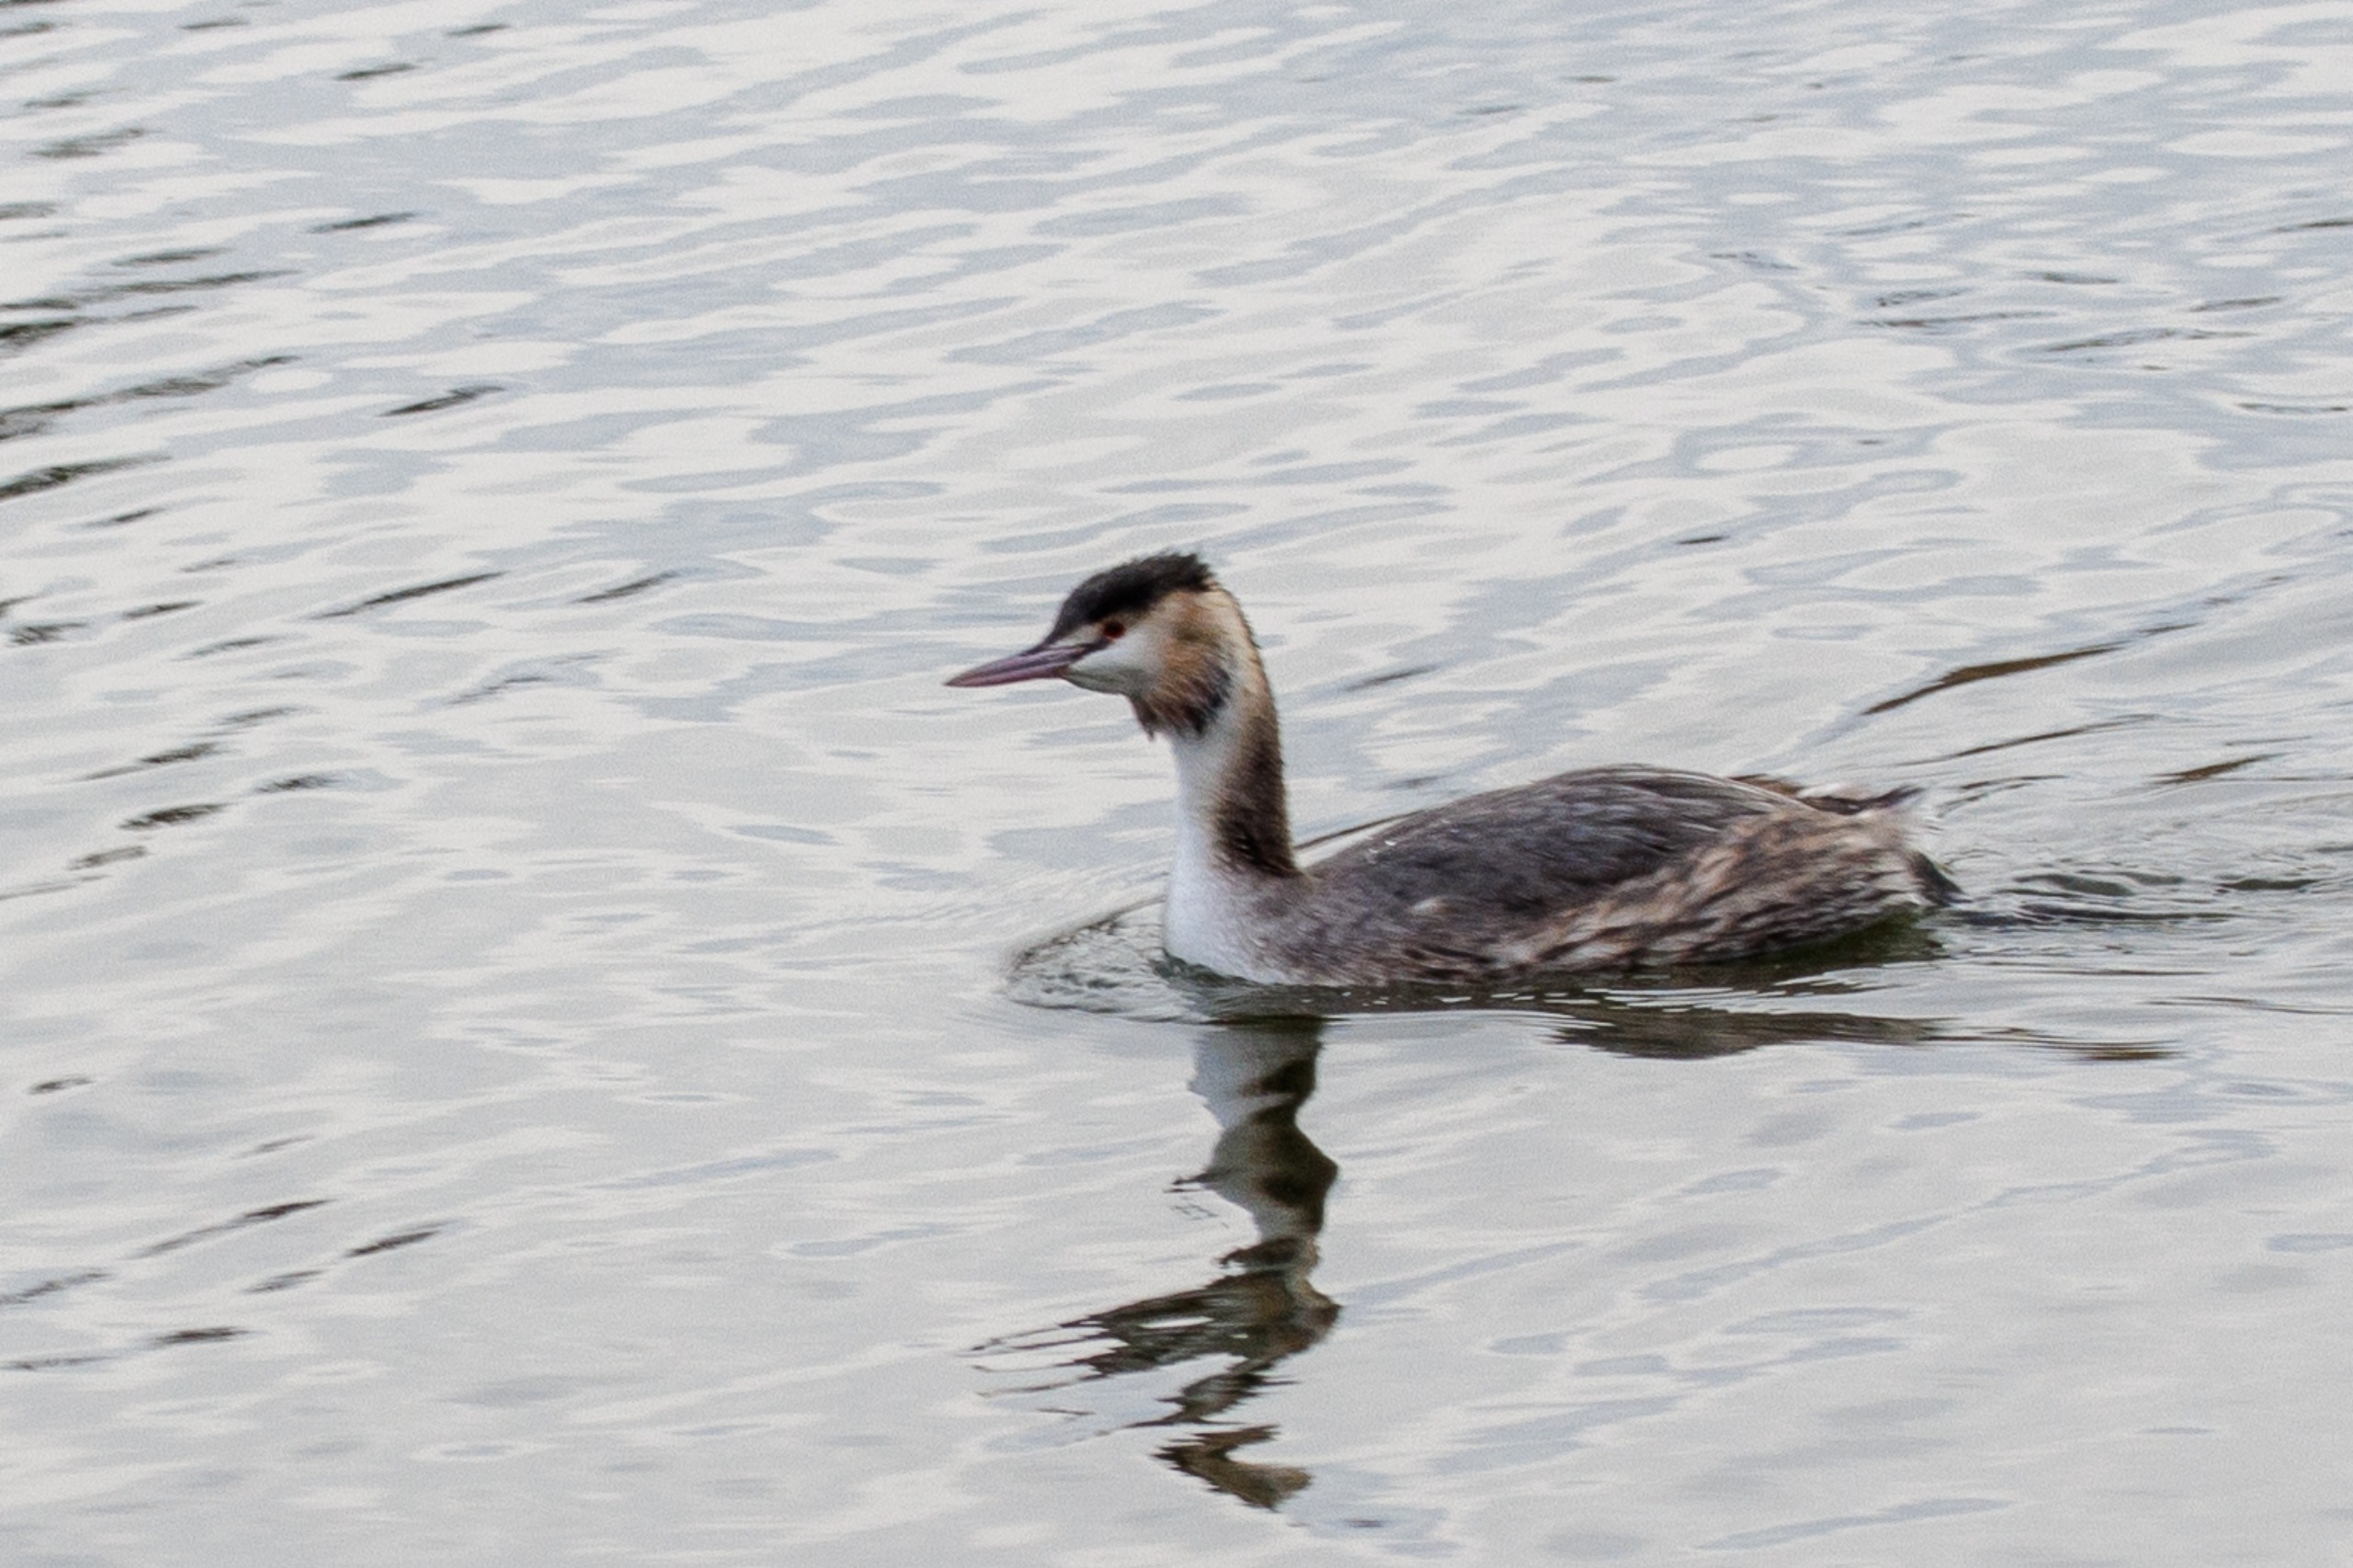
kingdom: Animalia
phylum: Chordata
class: Aves
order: Podicipediformes
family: Podicipedidae
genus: Podiceps
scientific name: Podiceps cristatus
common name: Toppet lappedykker
